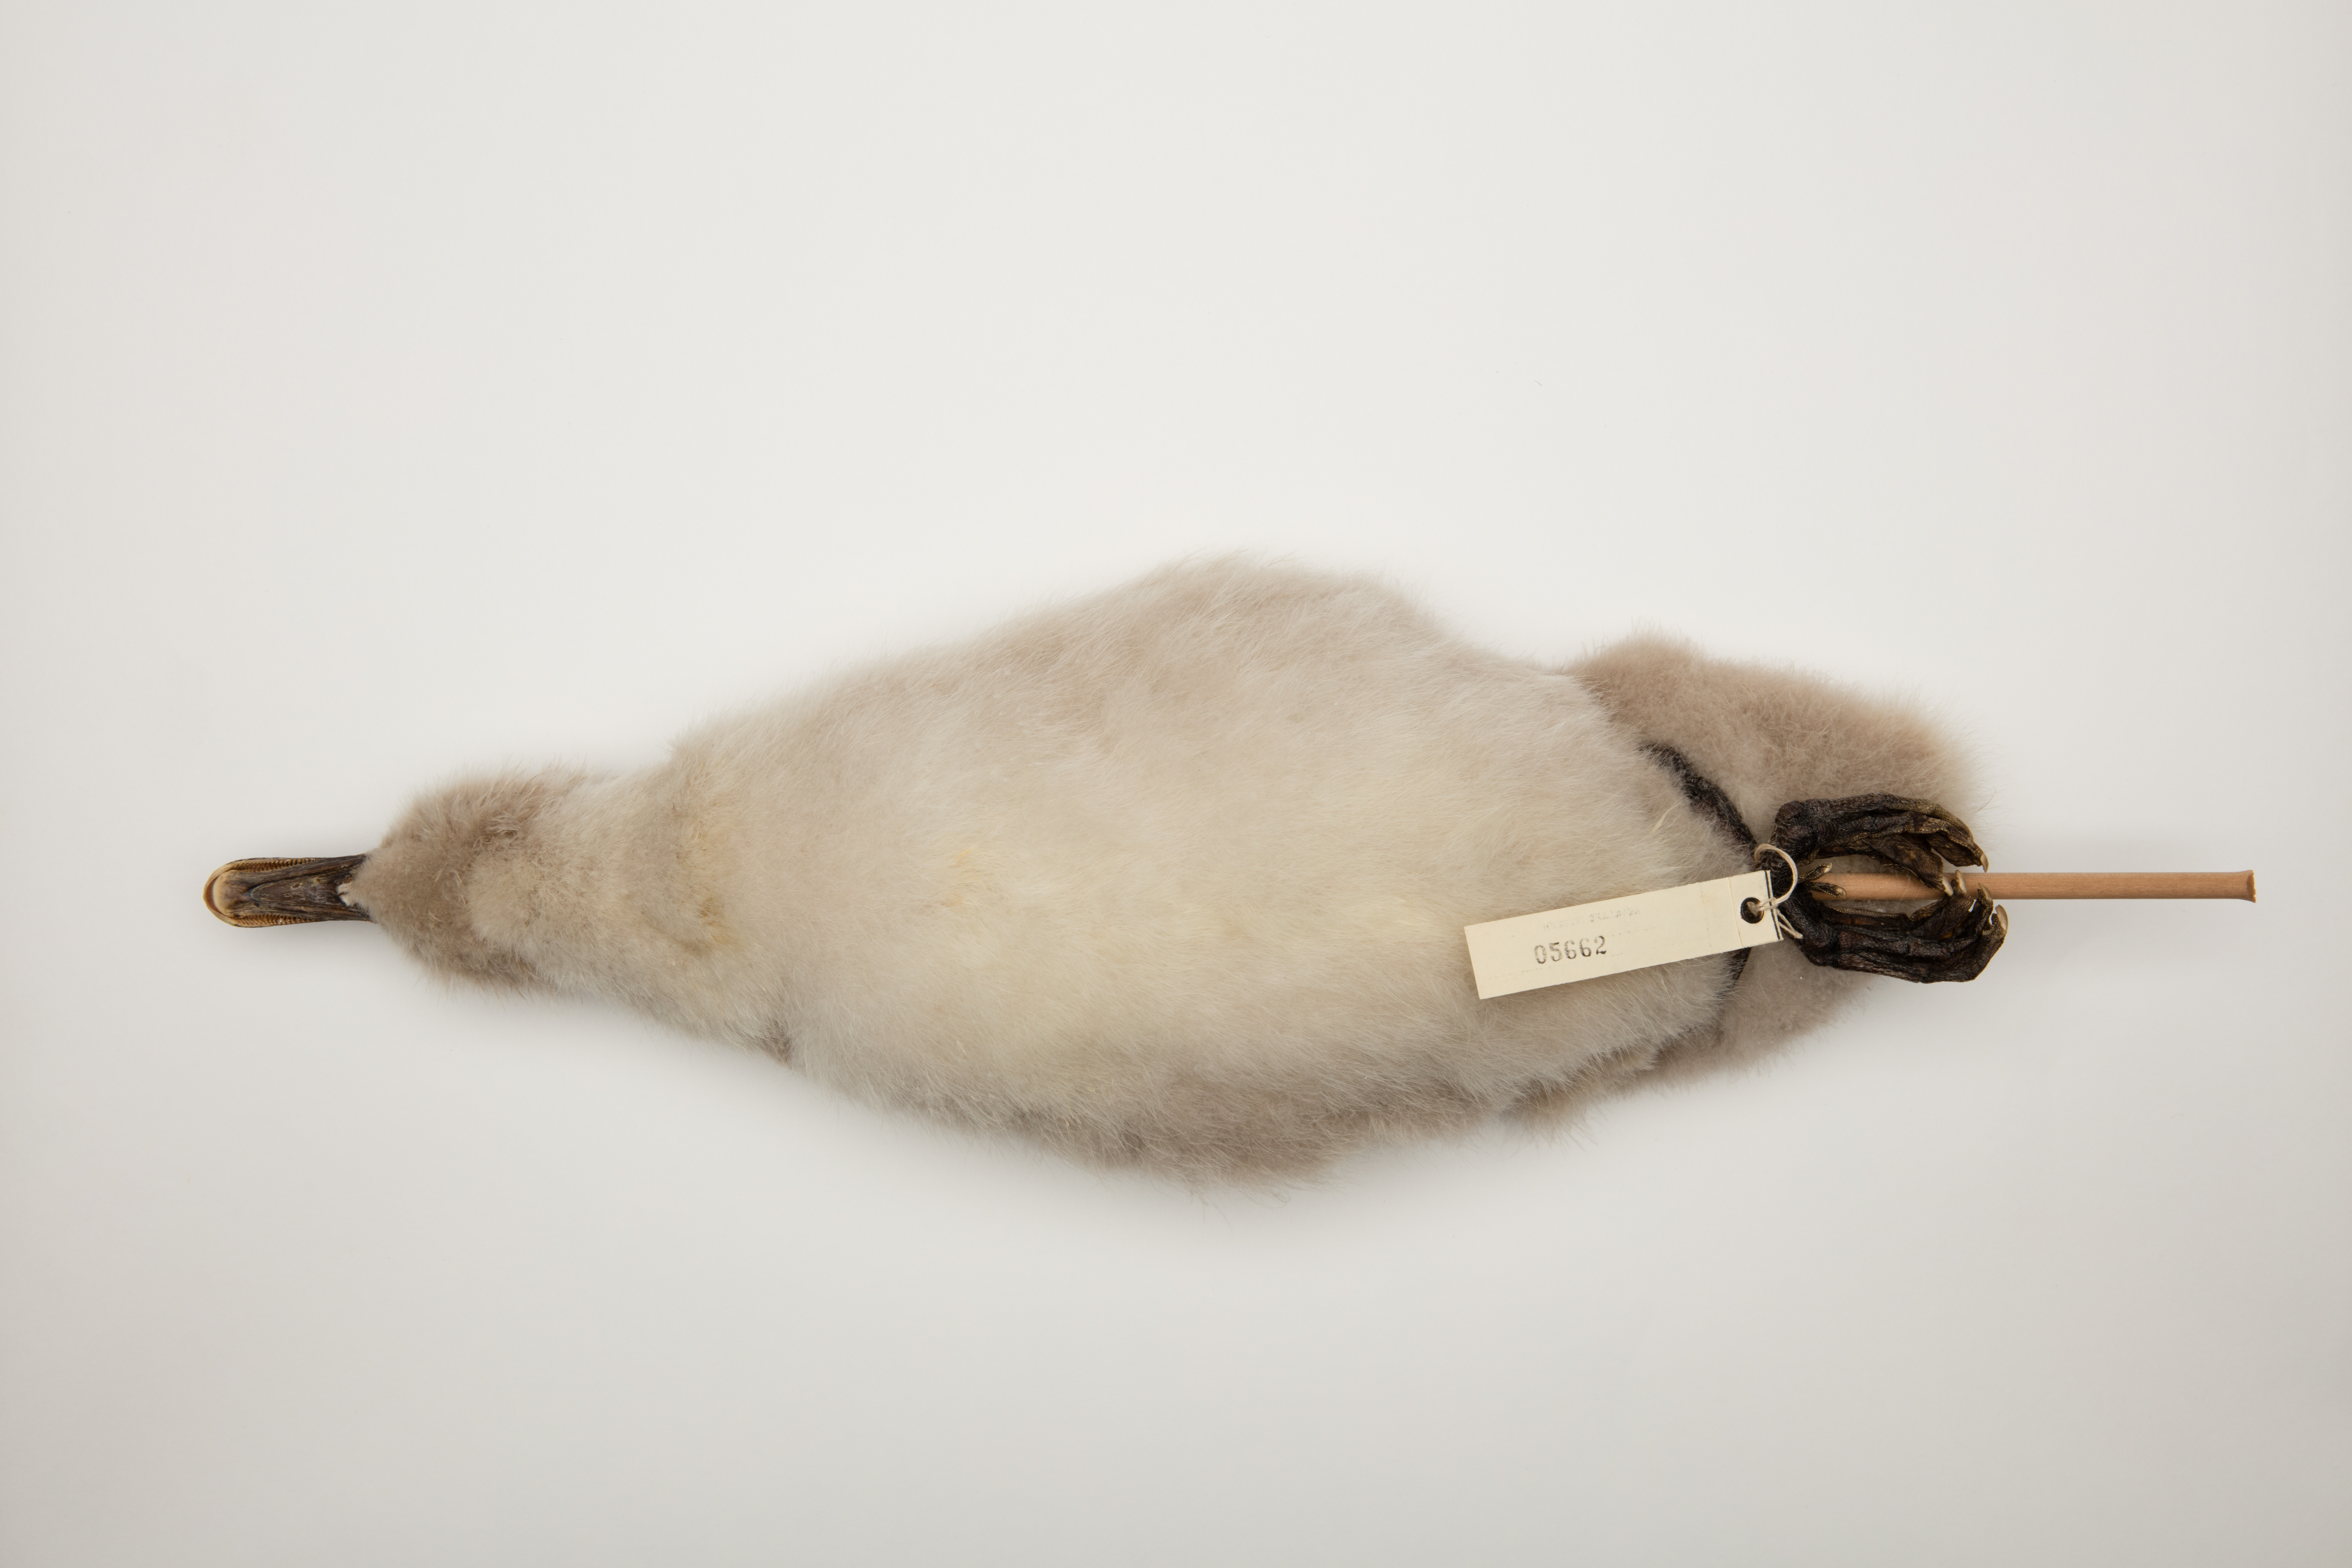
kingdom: Animalia
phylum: Chordata
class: Aves
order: Anseriformes
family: Anatidae
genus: Cygnus
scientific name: Cygnus atratus
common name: Black swan
